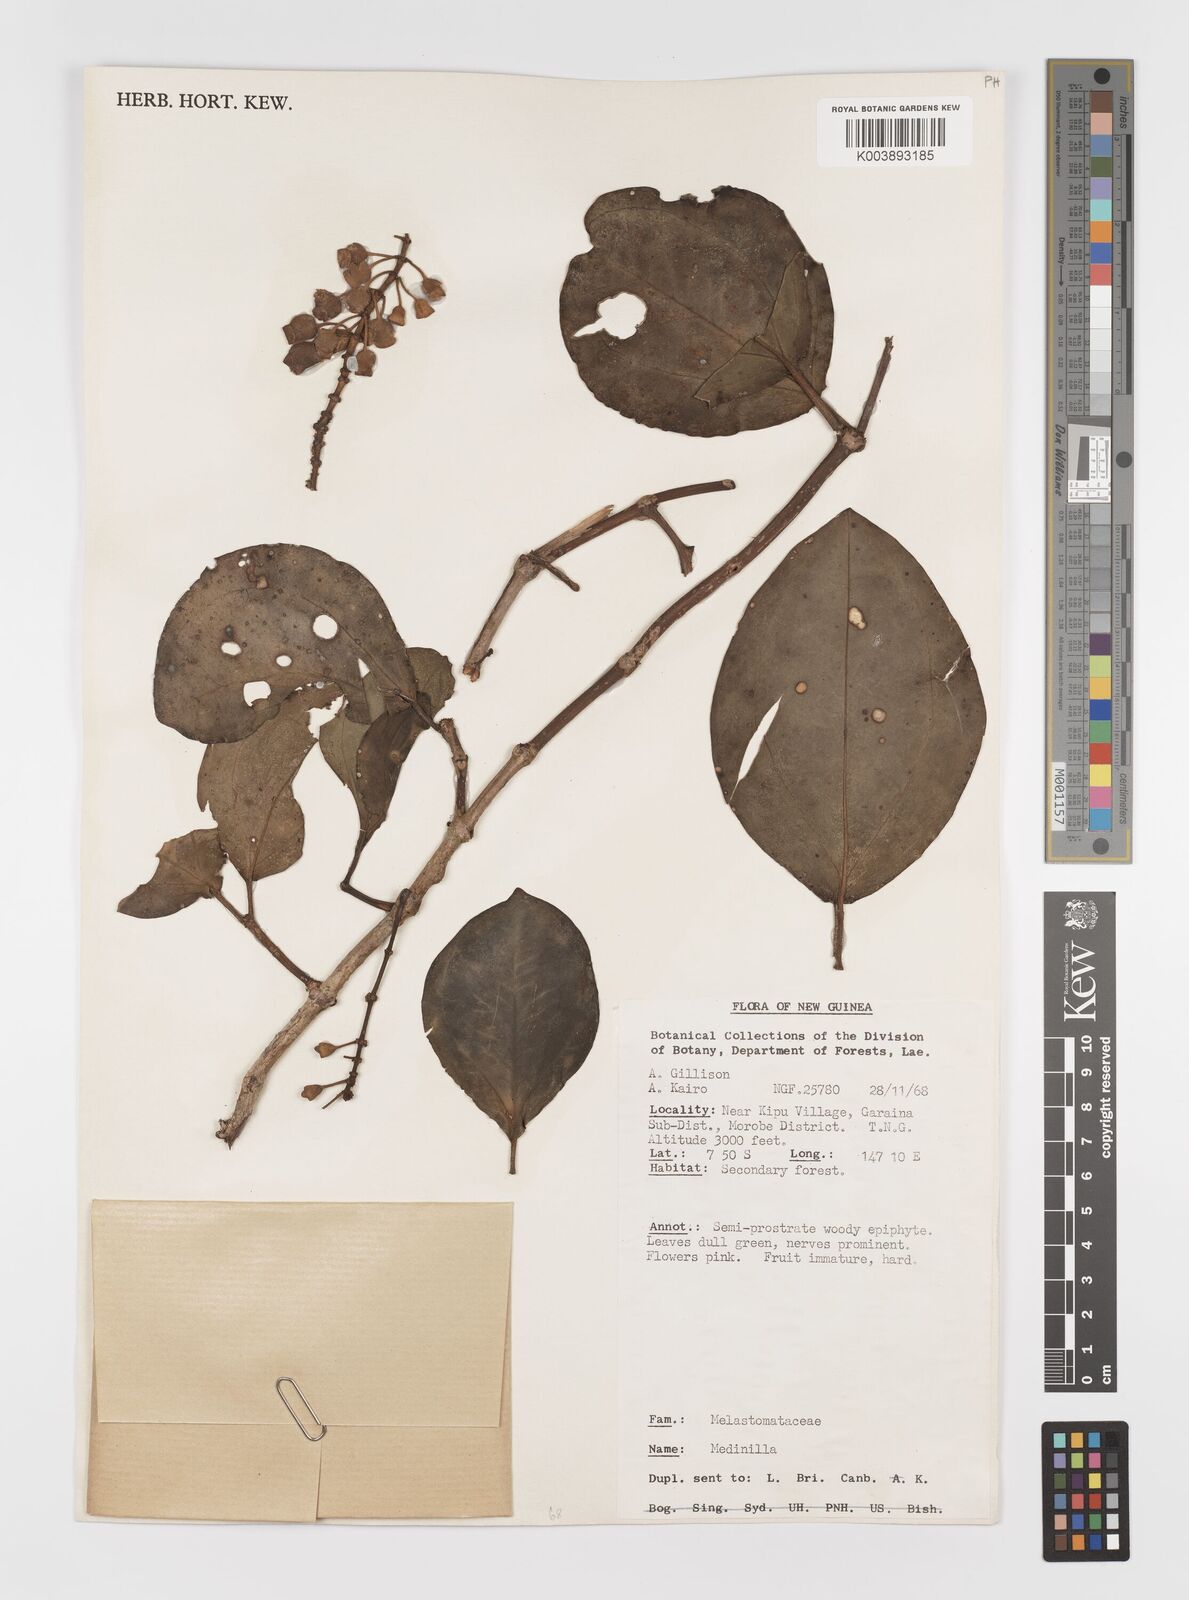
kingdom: Plantae
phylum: Tracheophyta
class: Magnoliopsida
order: Myrtales
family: Melastomataceae
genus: Medinilla
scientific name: Medinilla
